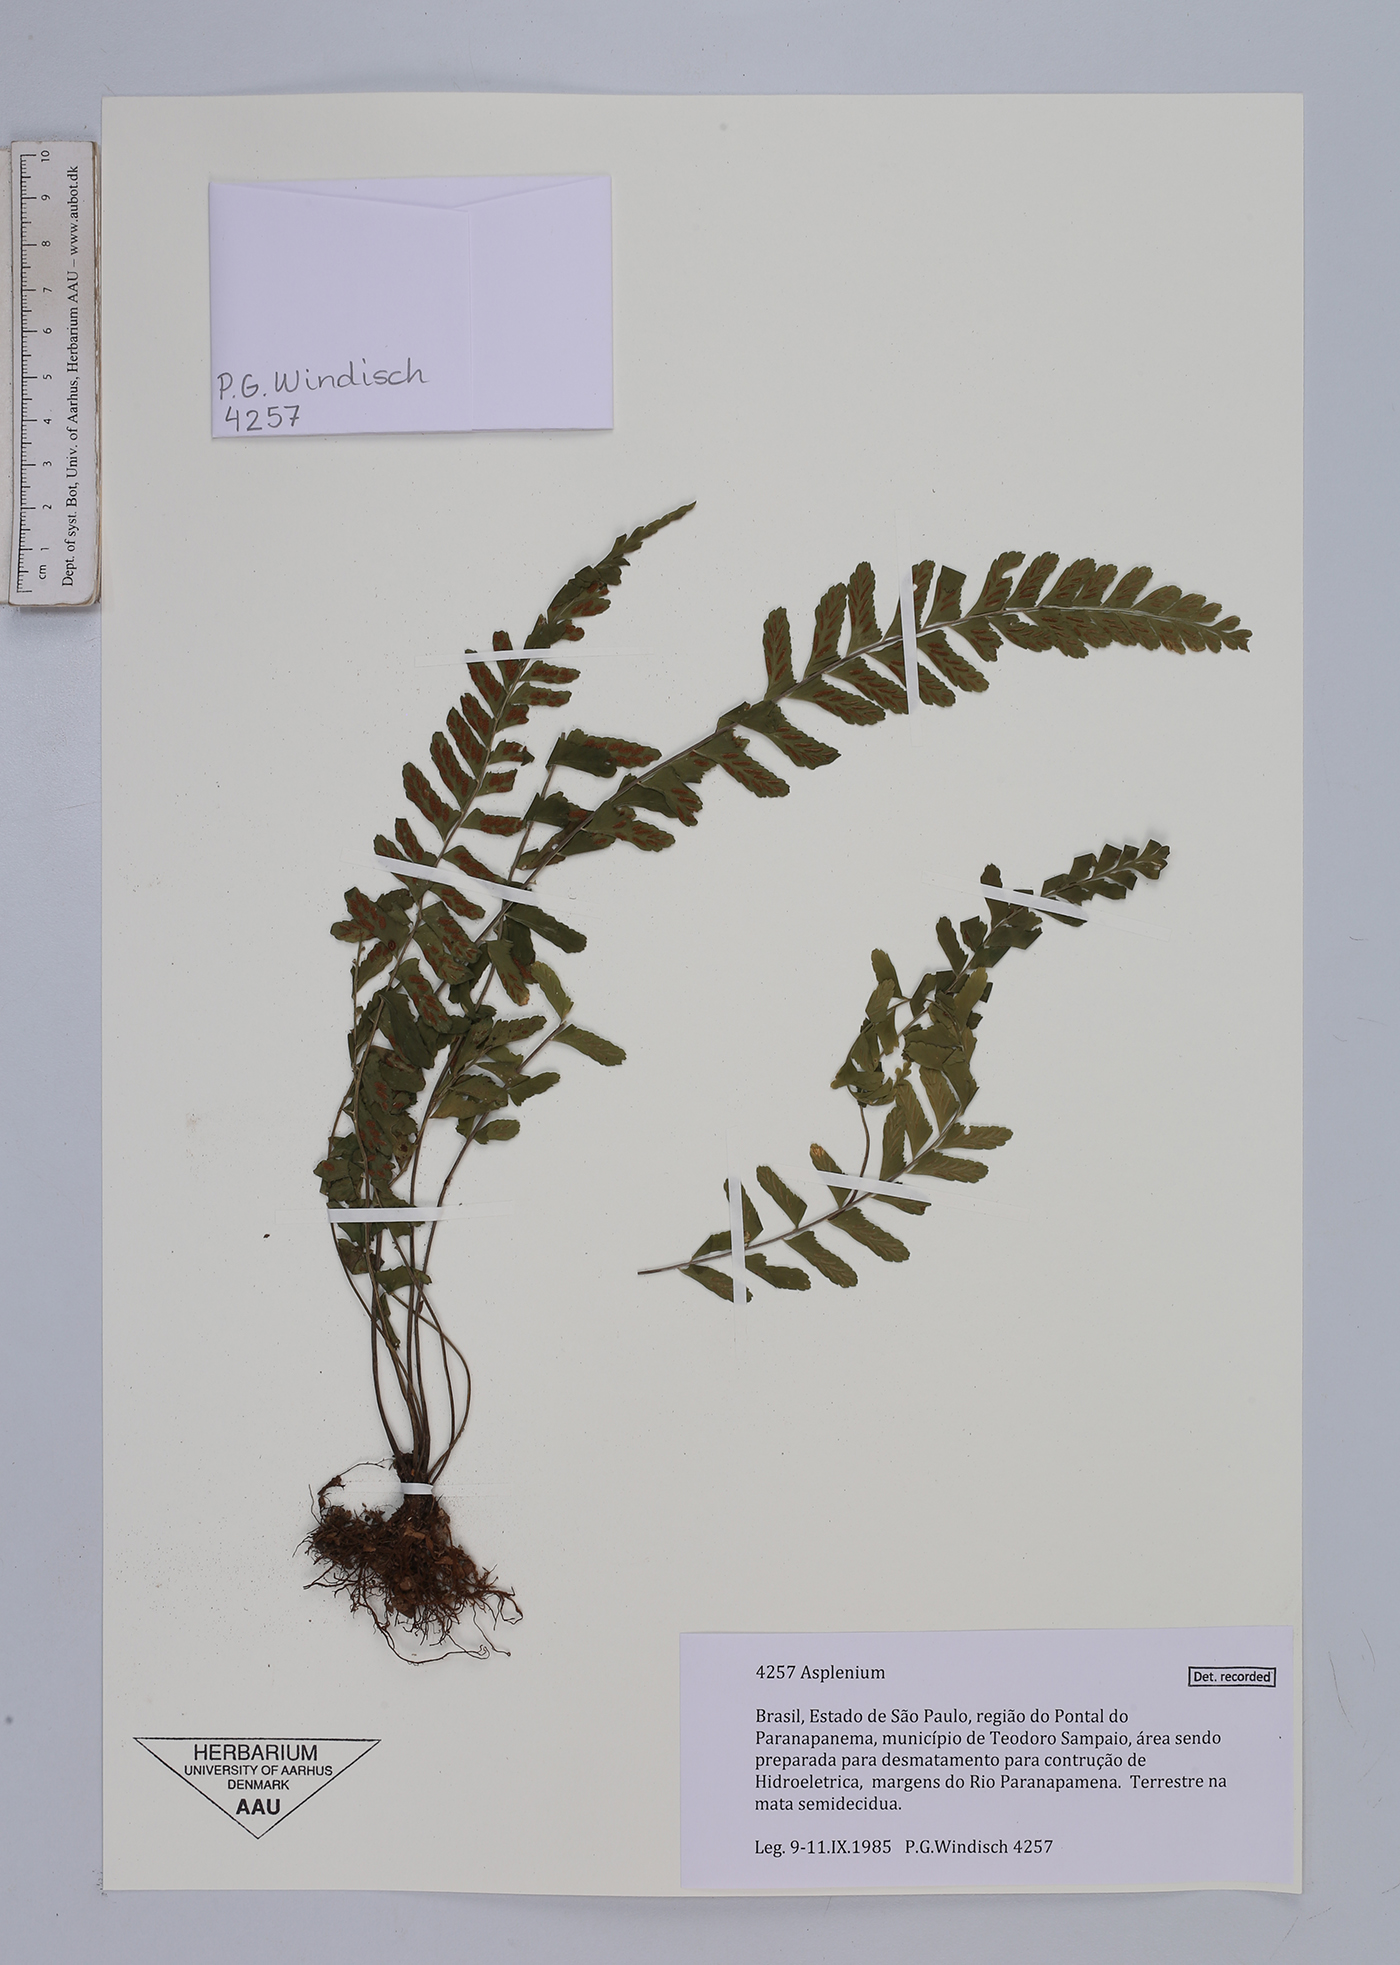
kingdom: Plantae
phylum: Tracheophyta
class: Polypodiopsida
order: Polypodiales
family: Aspleniaceae
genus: Asplenium
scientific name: Asplenium
